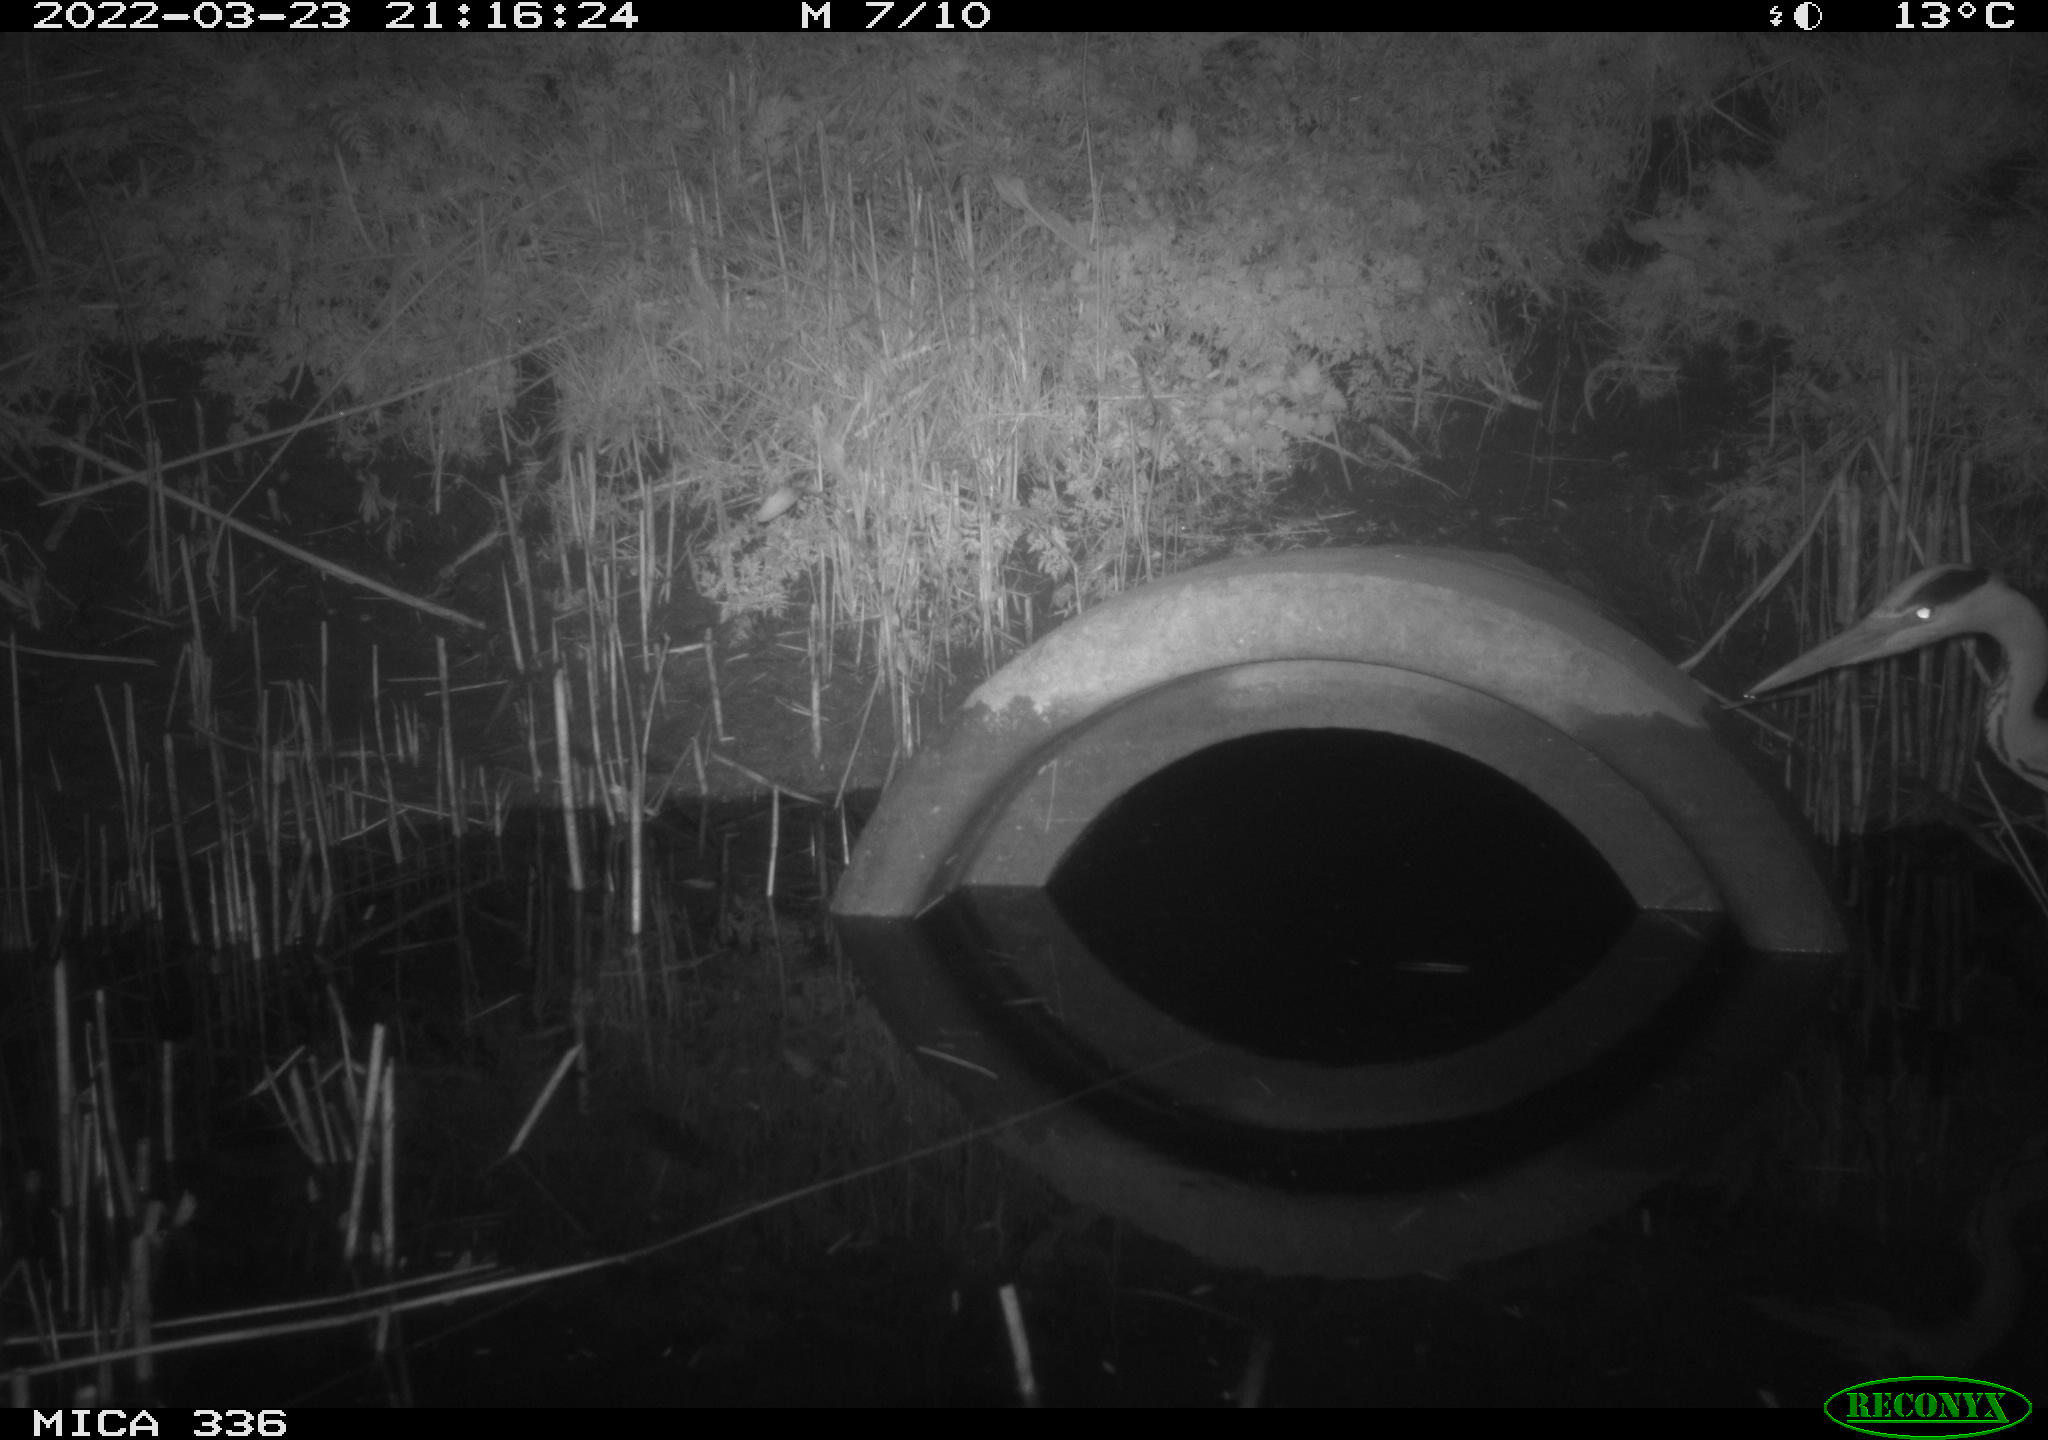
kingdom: Animalia
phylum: Chordata
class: Aves
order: Pelecaniformes
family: Ardeidae
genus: Ardea
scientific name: Ardea cinerea
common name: Grey heron
